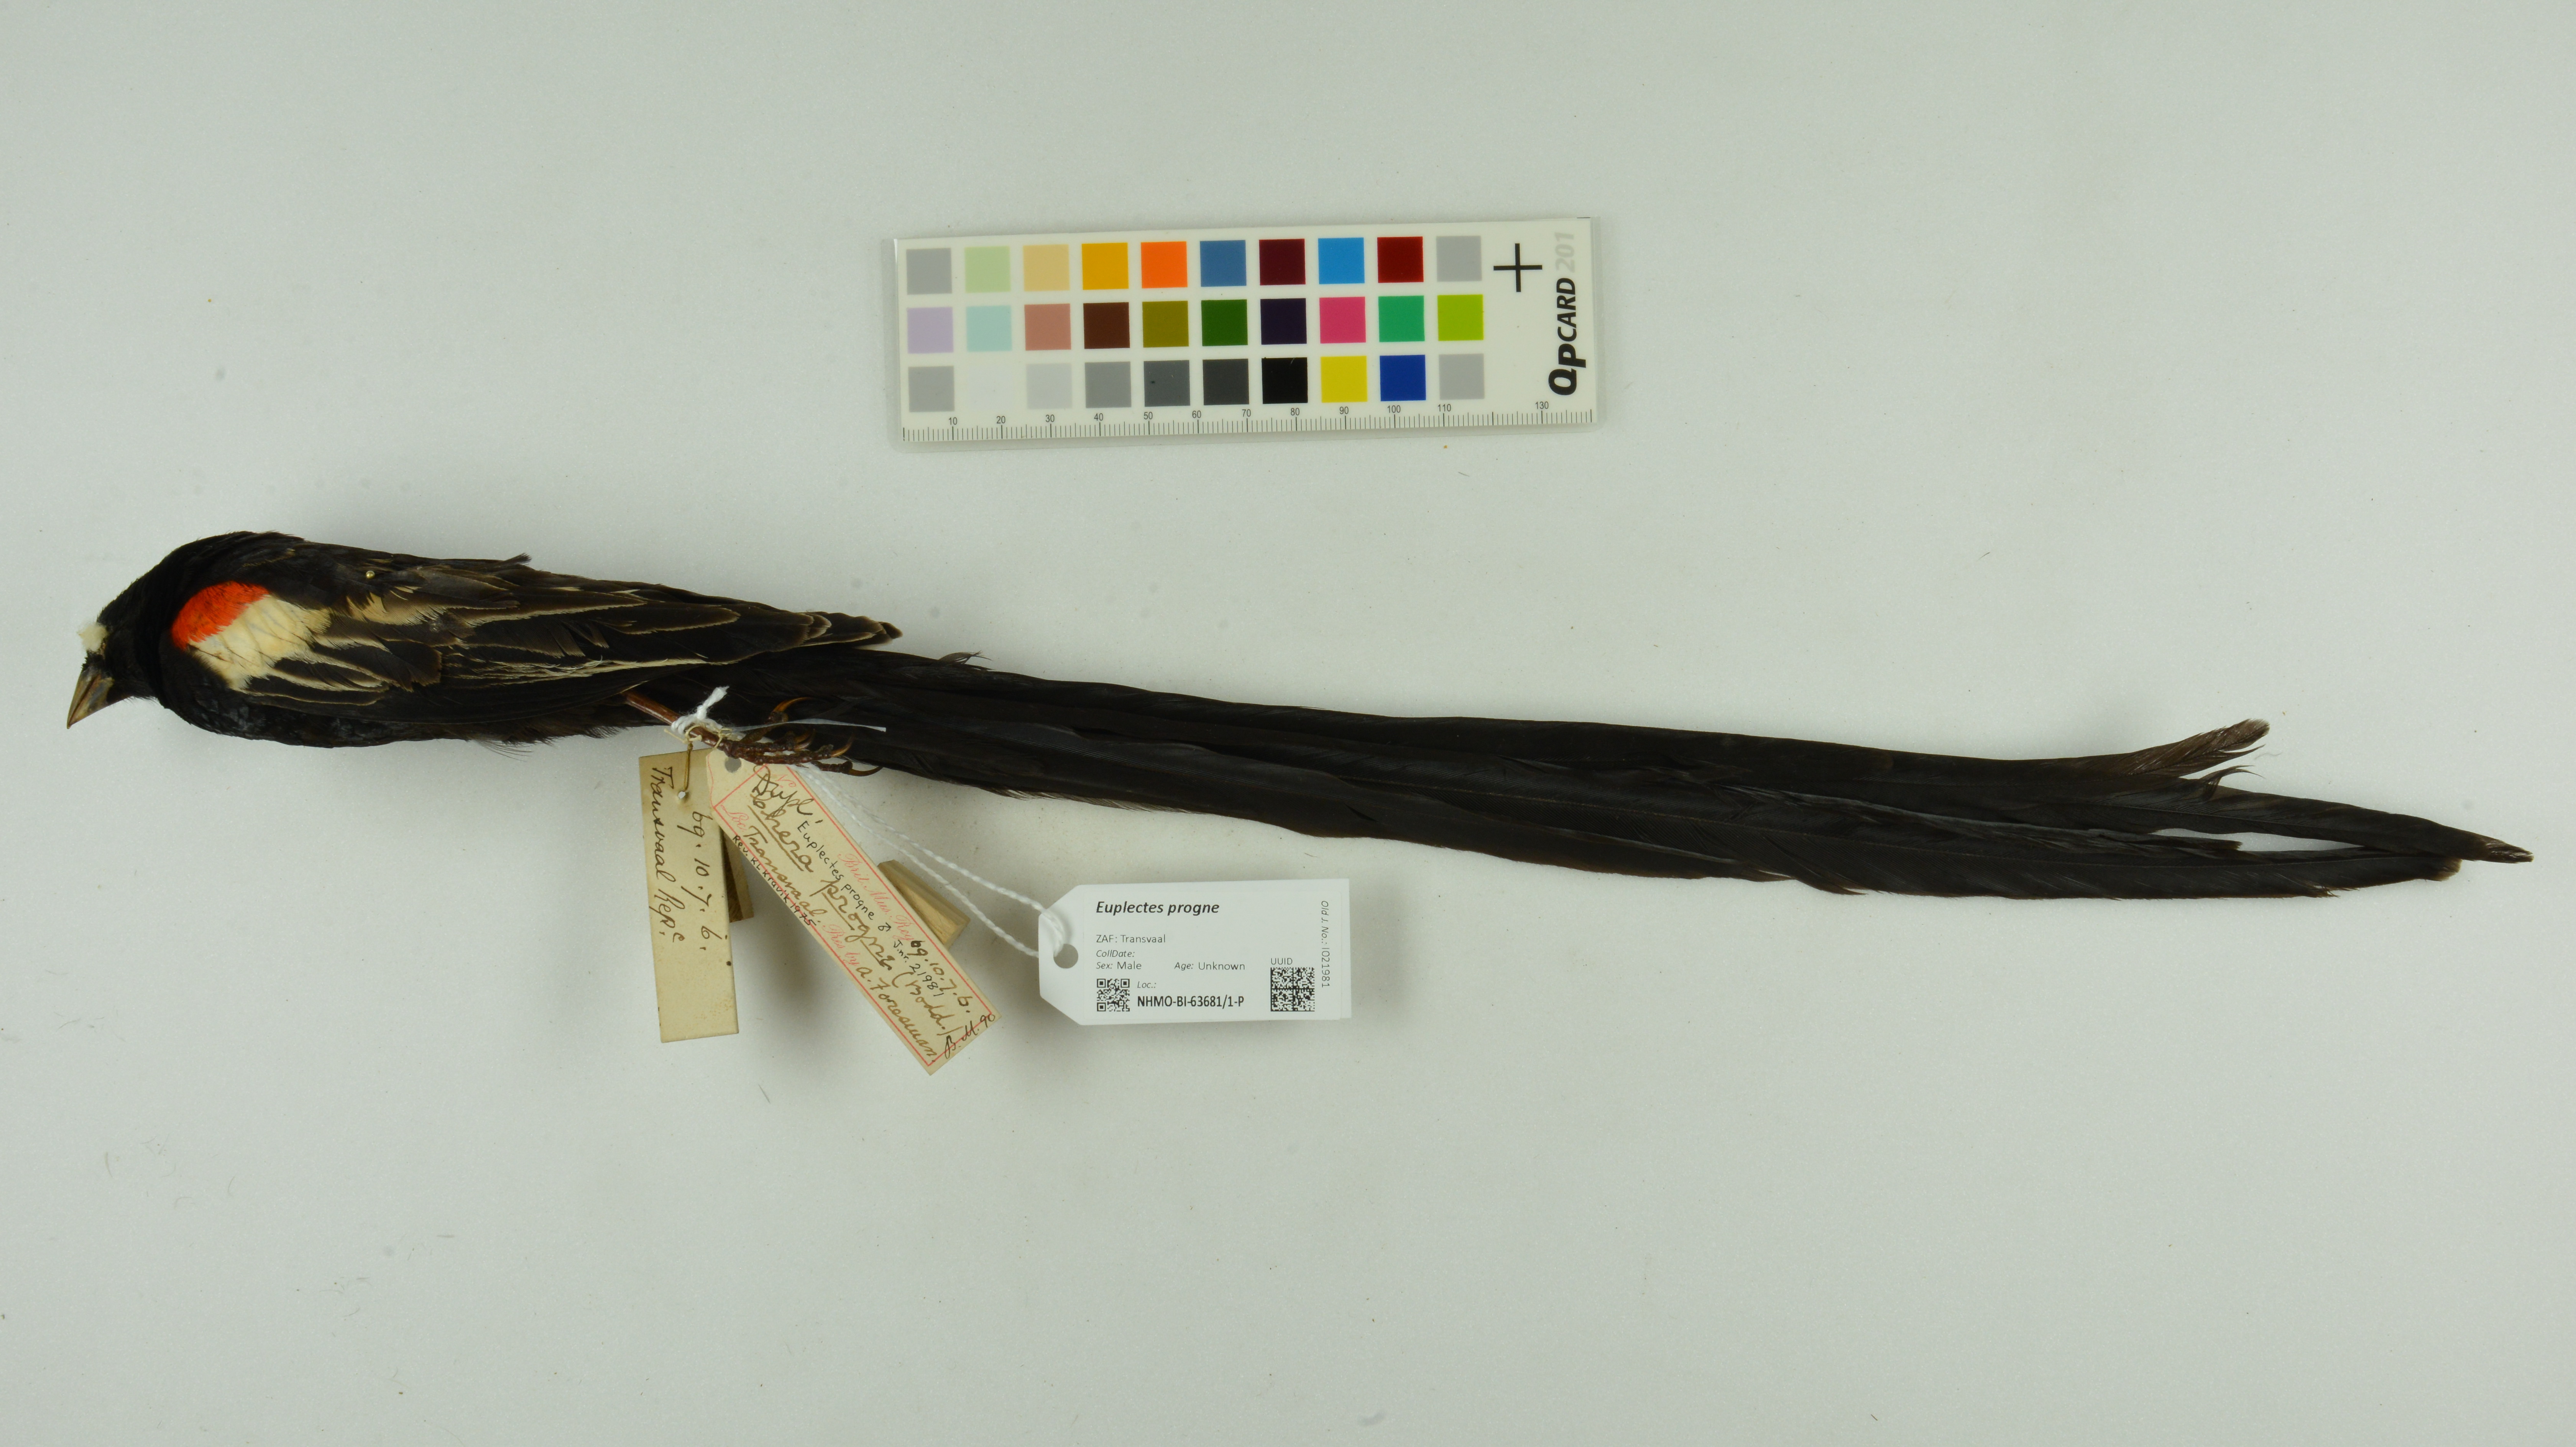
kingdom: Animalia
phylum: Chordata
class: Aves
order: Passeriformes
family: Ploceidae
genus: Euplectes
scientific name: Euplectes progne
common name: Long-tailed widowbird
